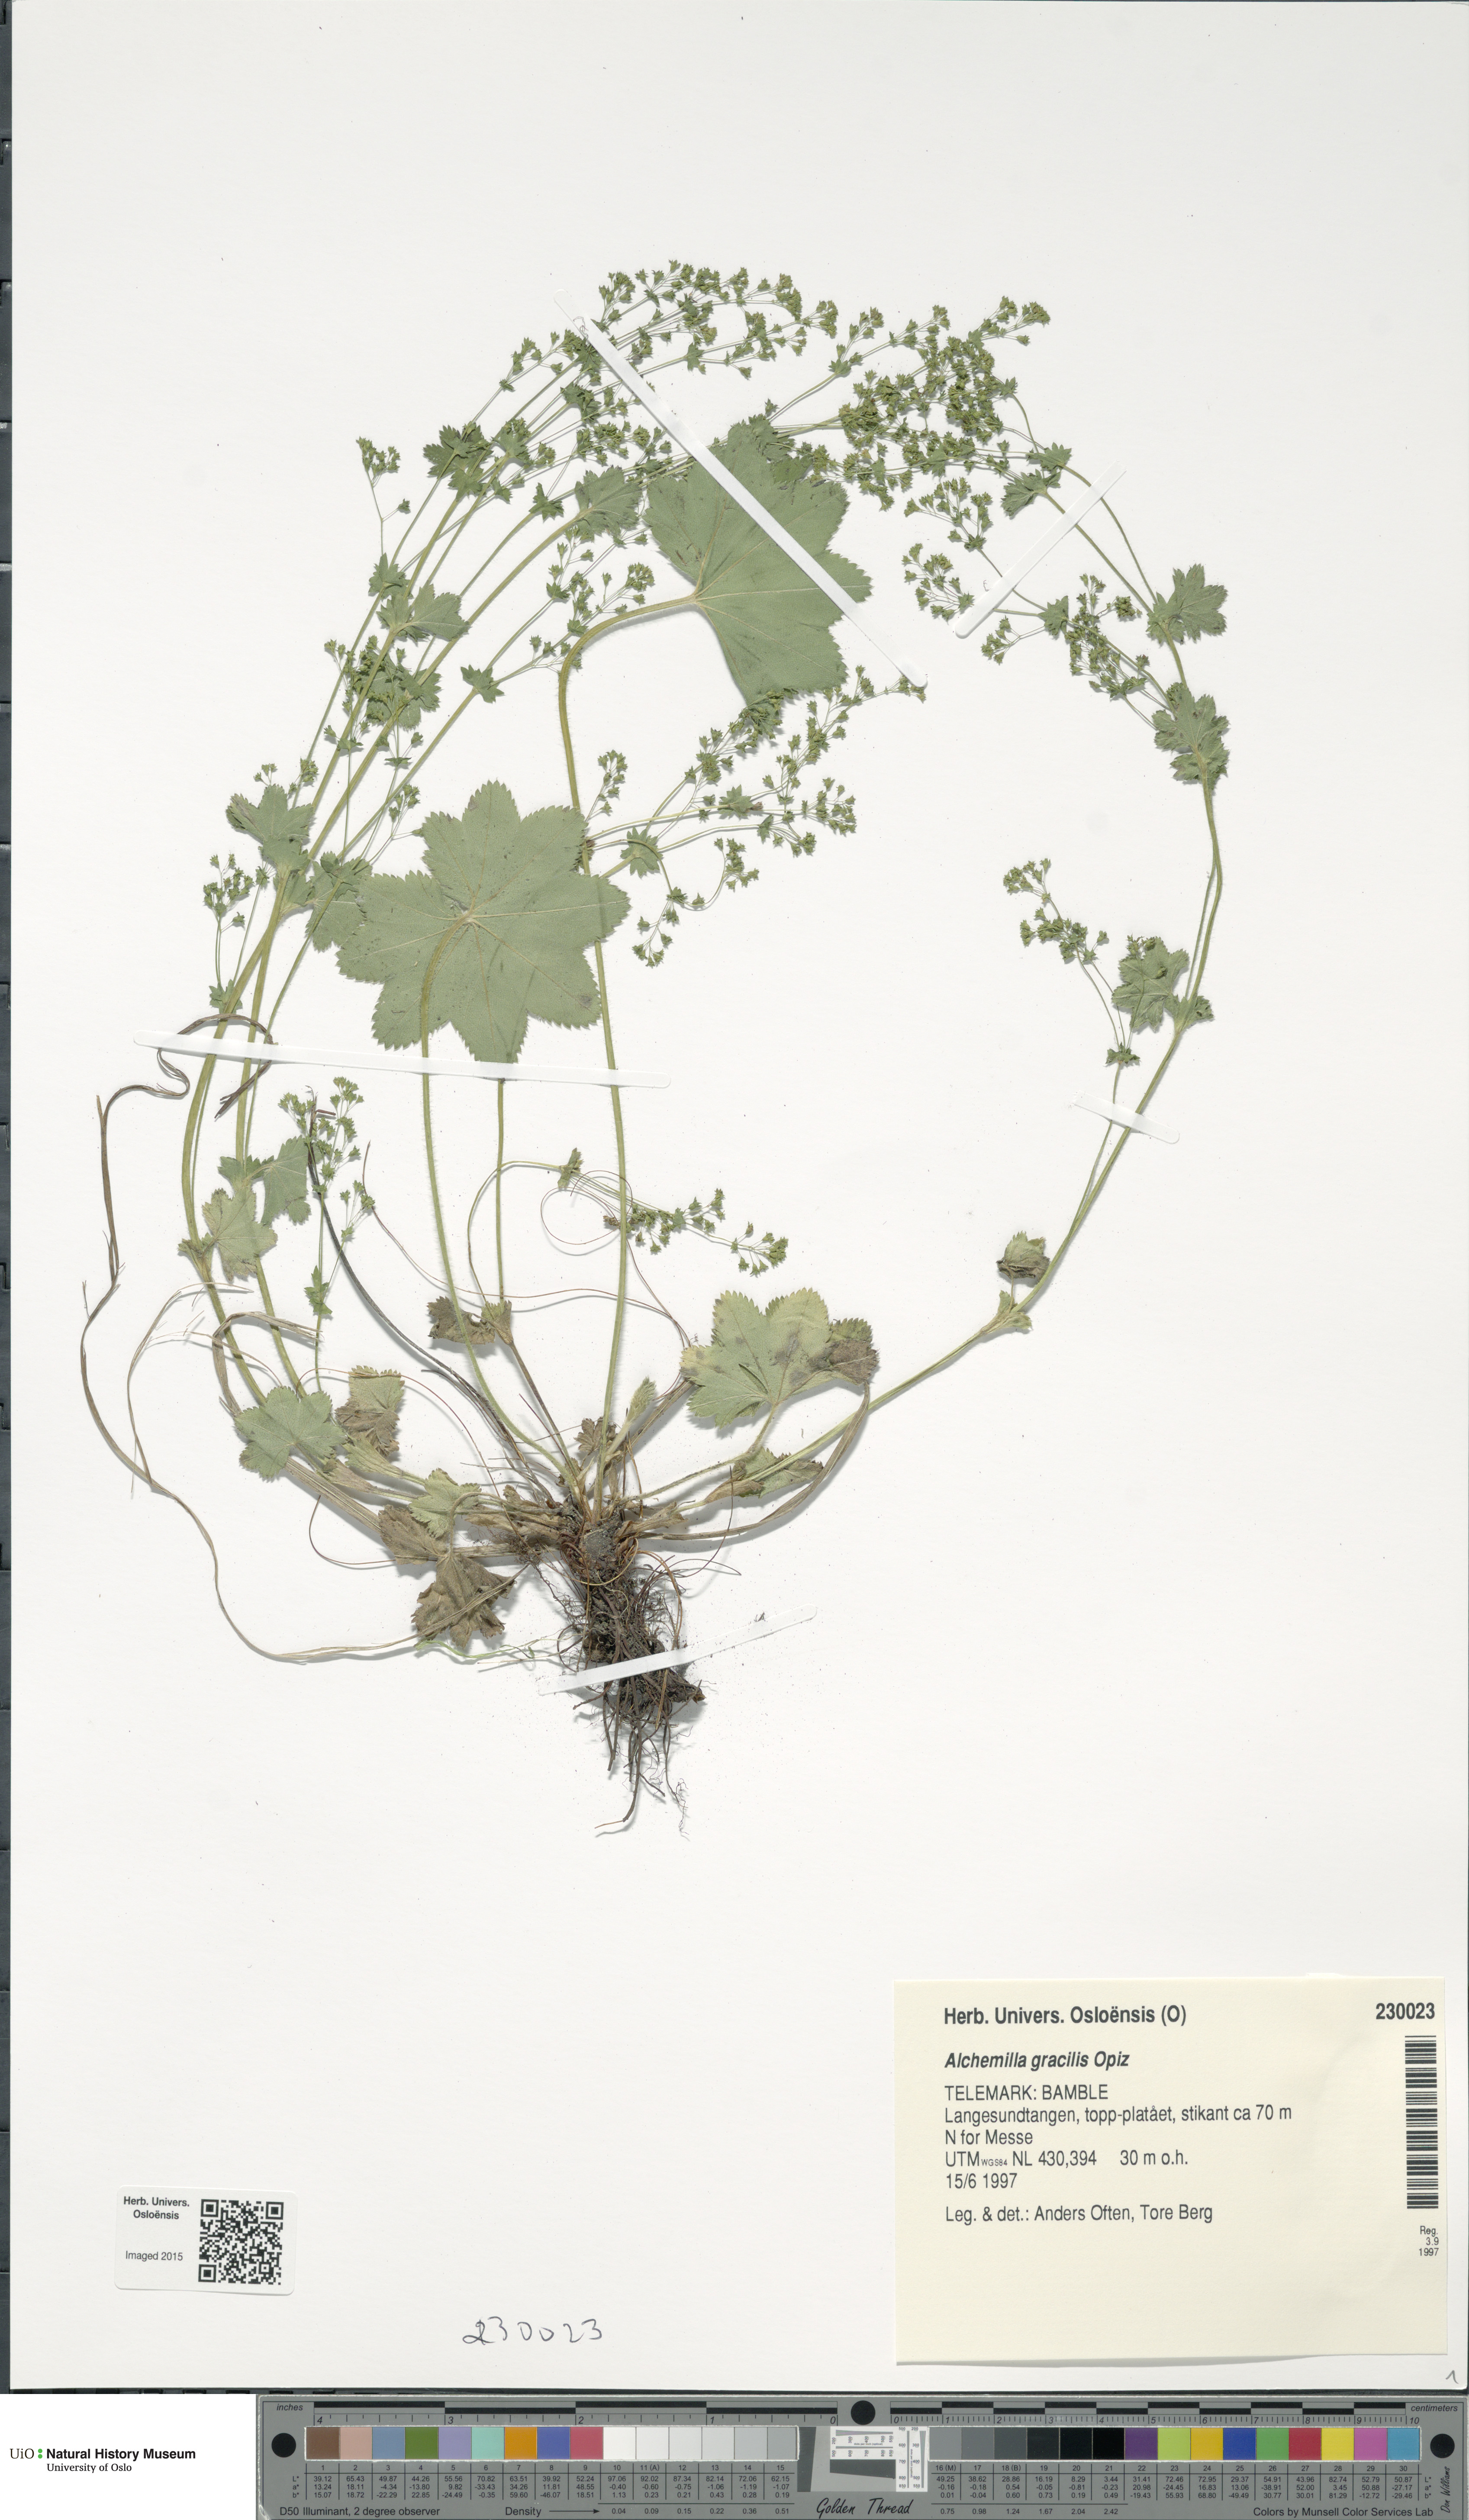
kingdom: Plantae
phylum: Tracheophyta
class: Magnoliopsida
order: Rosales
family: Rosaceae
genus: Alchemilla
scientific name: Alchemilla micans
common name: Gleaming lady's mantle
